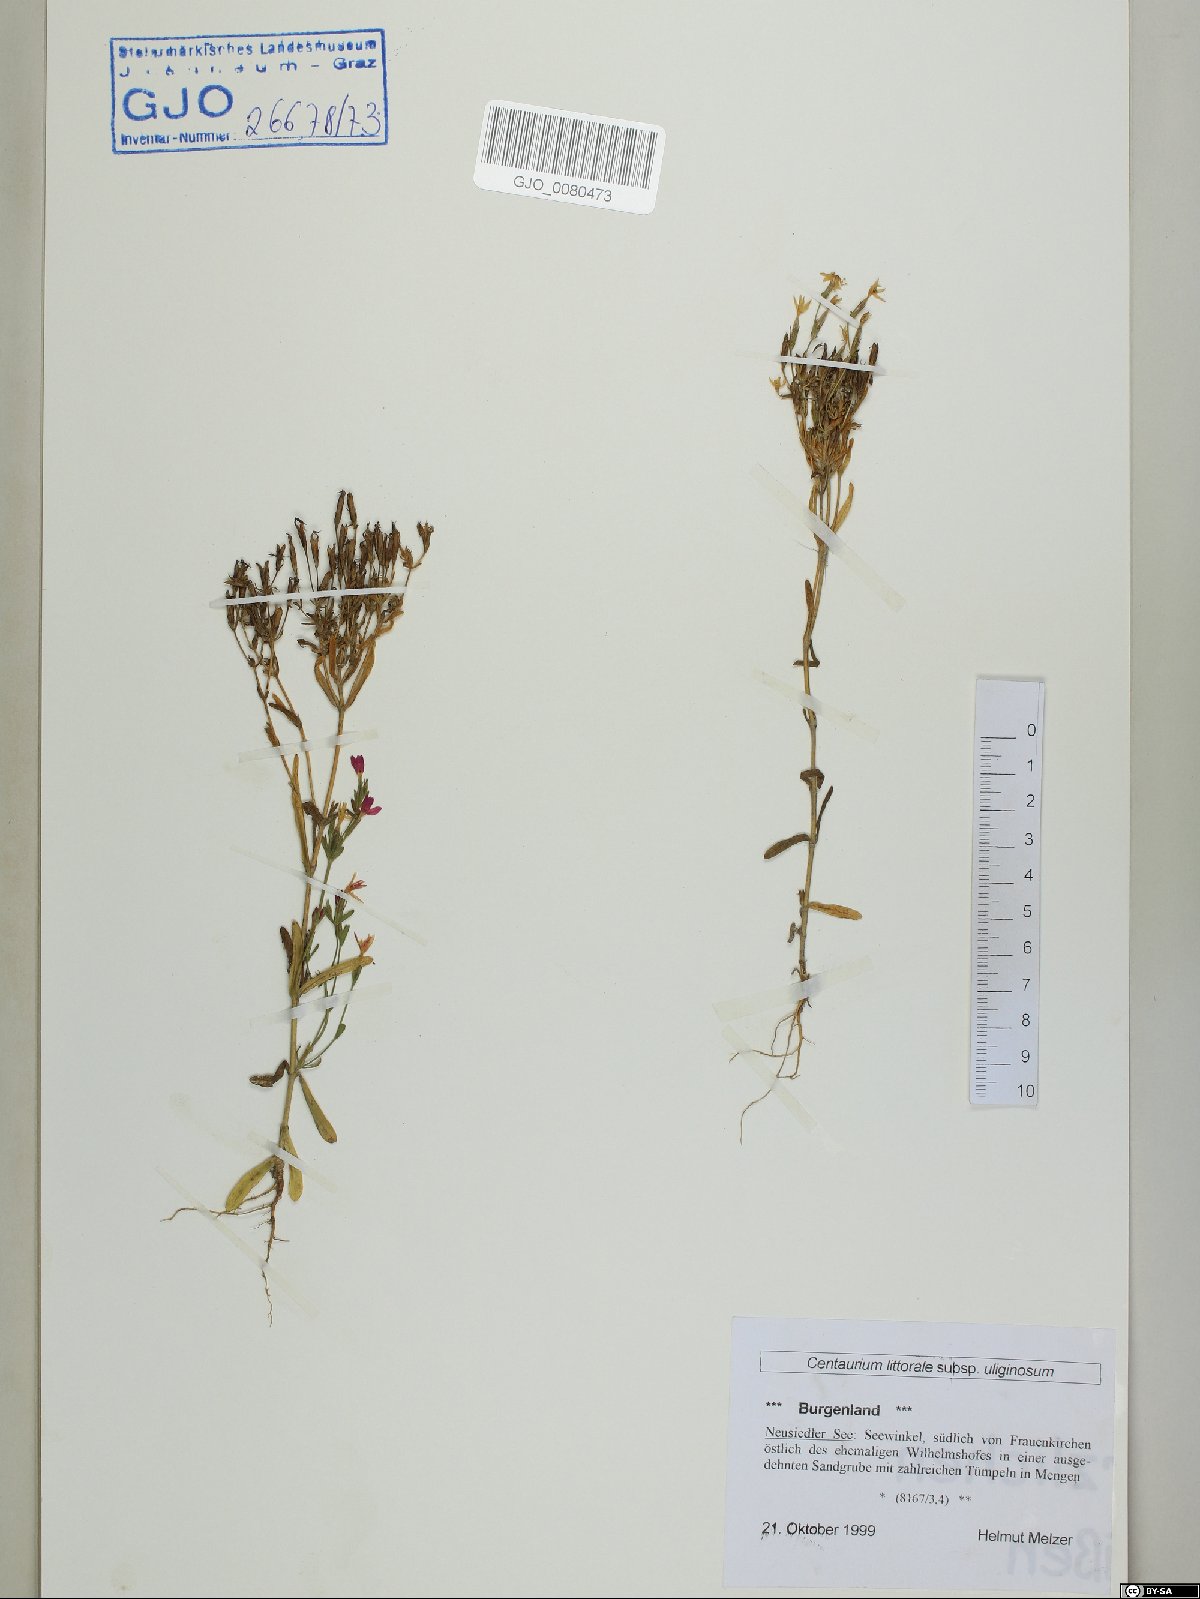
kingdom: Plantae
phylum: Tracheophyta
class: Magnoliopsida
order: Gentianales
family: Gentianaceae
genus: Centaurium
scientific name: Centaurium littorale
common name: Seaside centaury
